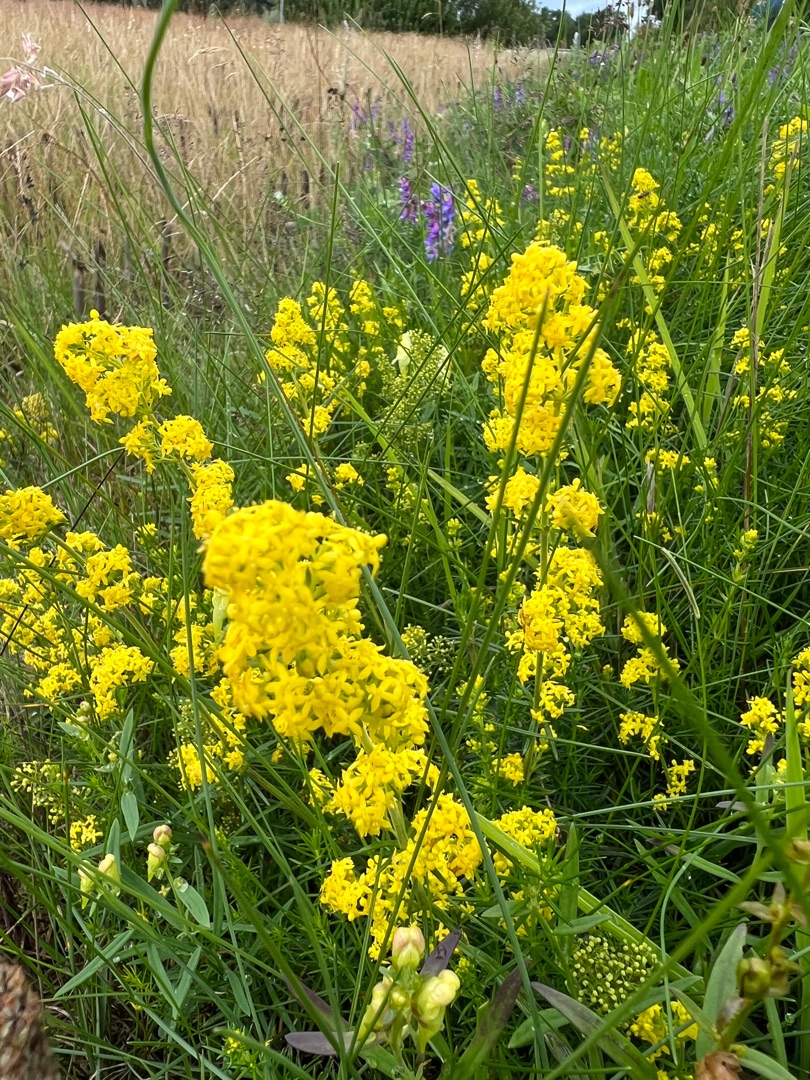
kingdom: Plantae
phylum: Tracheophyta
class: Magnoliopsida
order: Gentianales
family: Rubiaceae
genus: Galium
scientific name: Galium verum
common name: Gul snerre
